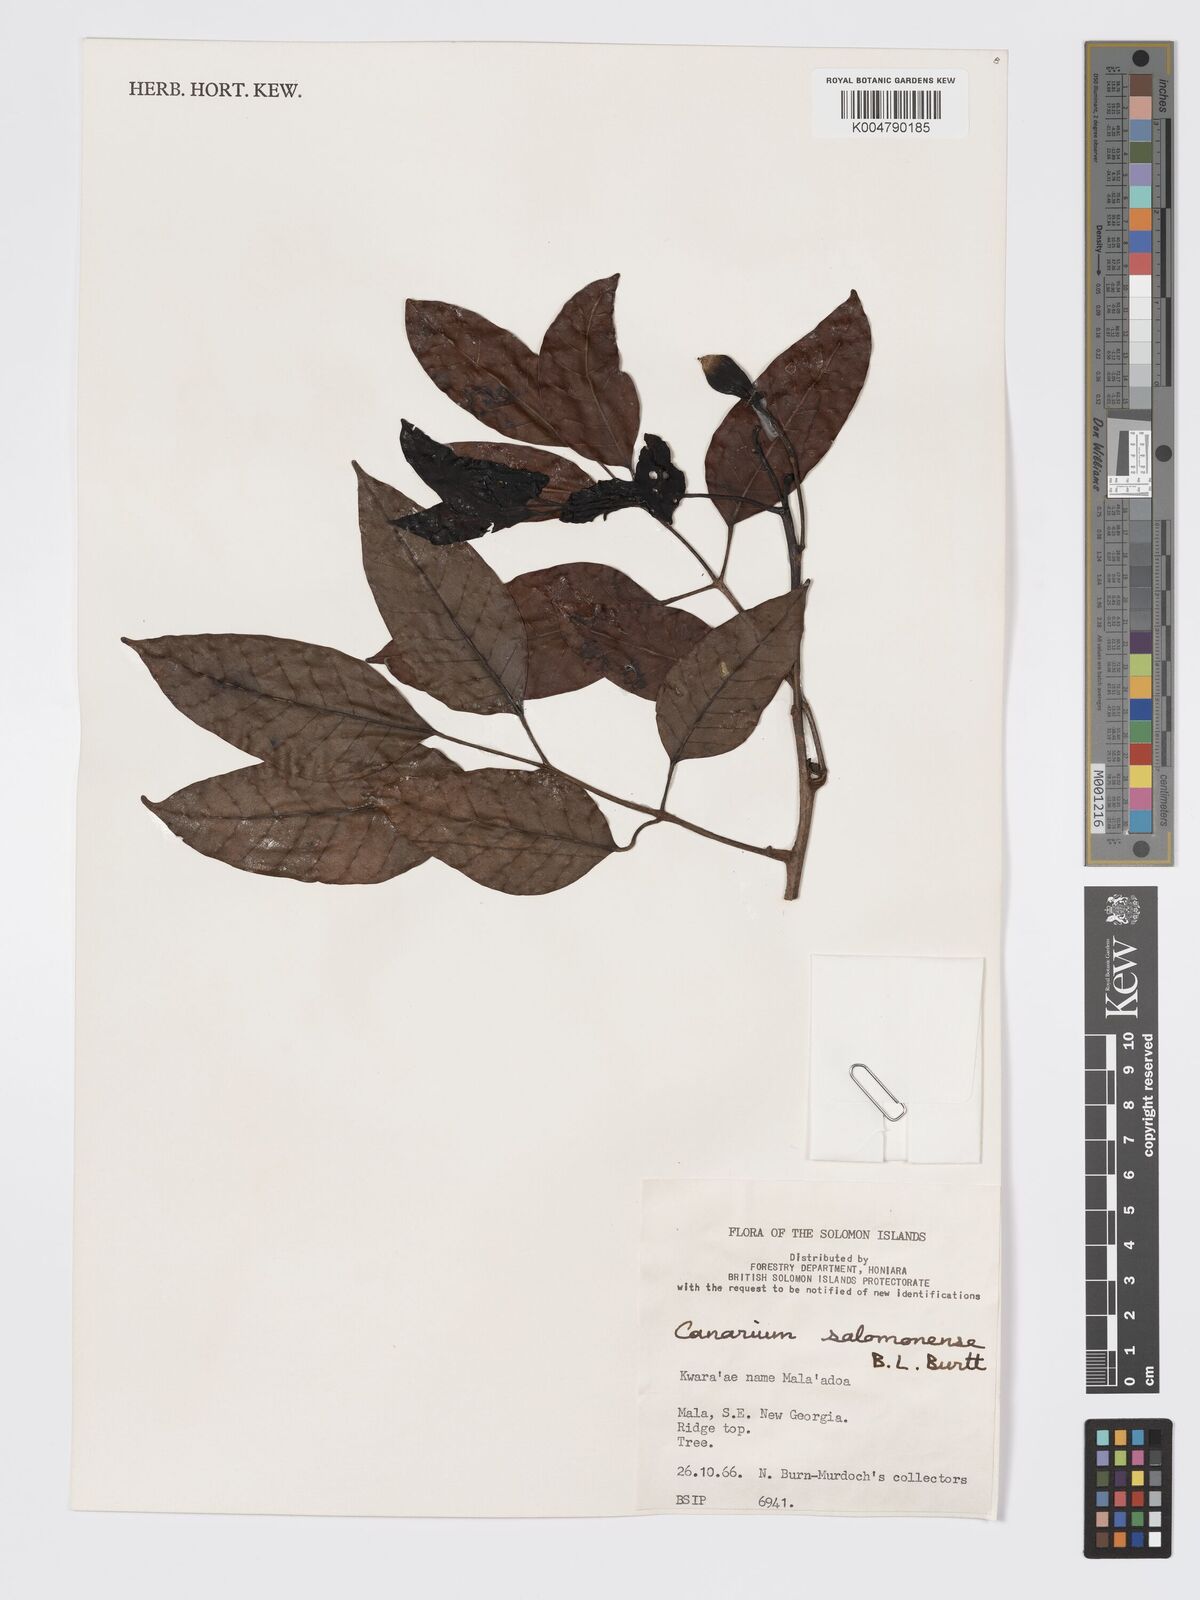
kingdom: Plantae
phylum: Tracheophyta
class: Magnoliopsida
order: Sapindales
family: Burseraceae
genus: Canarium
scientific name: Canarium salomonense
